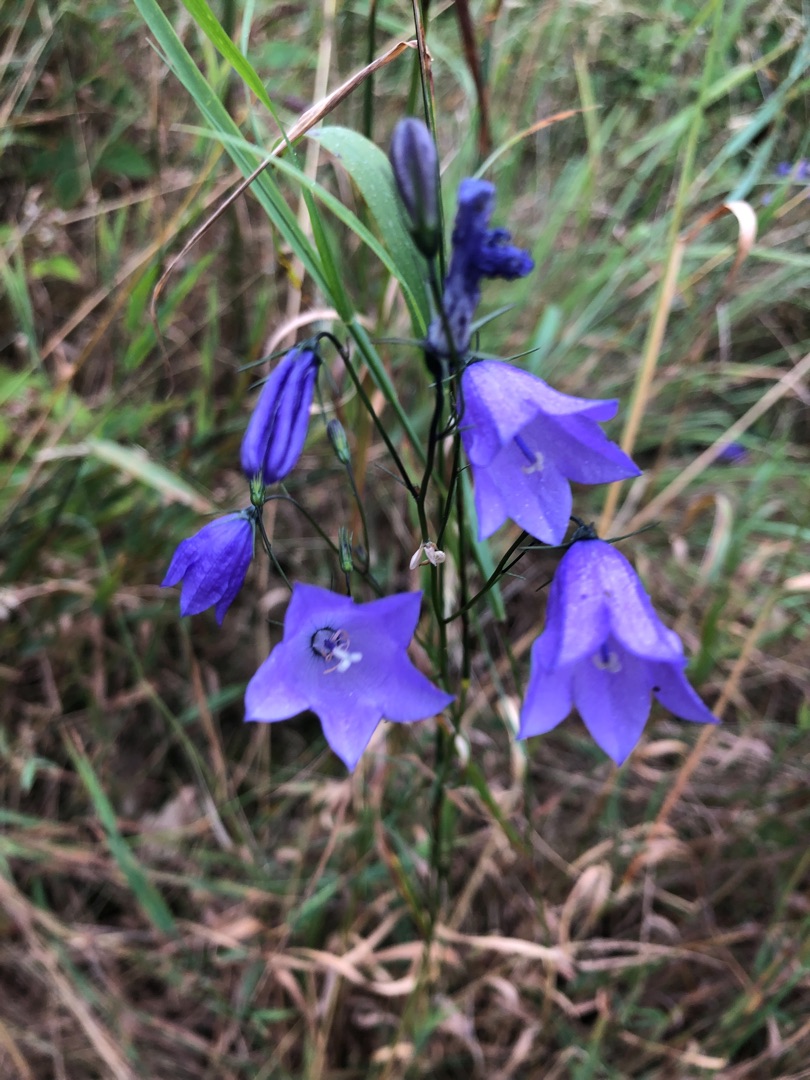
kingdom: Plantae
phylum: Tracheophyta
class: Magnoliopsida
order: Asterales
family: Campanulaceae
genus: Campanula
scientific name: Campanula rotundifolia
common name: Liden klokke
